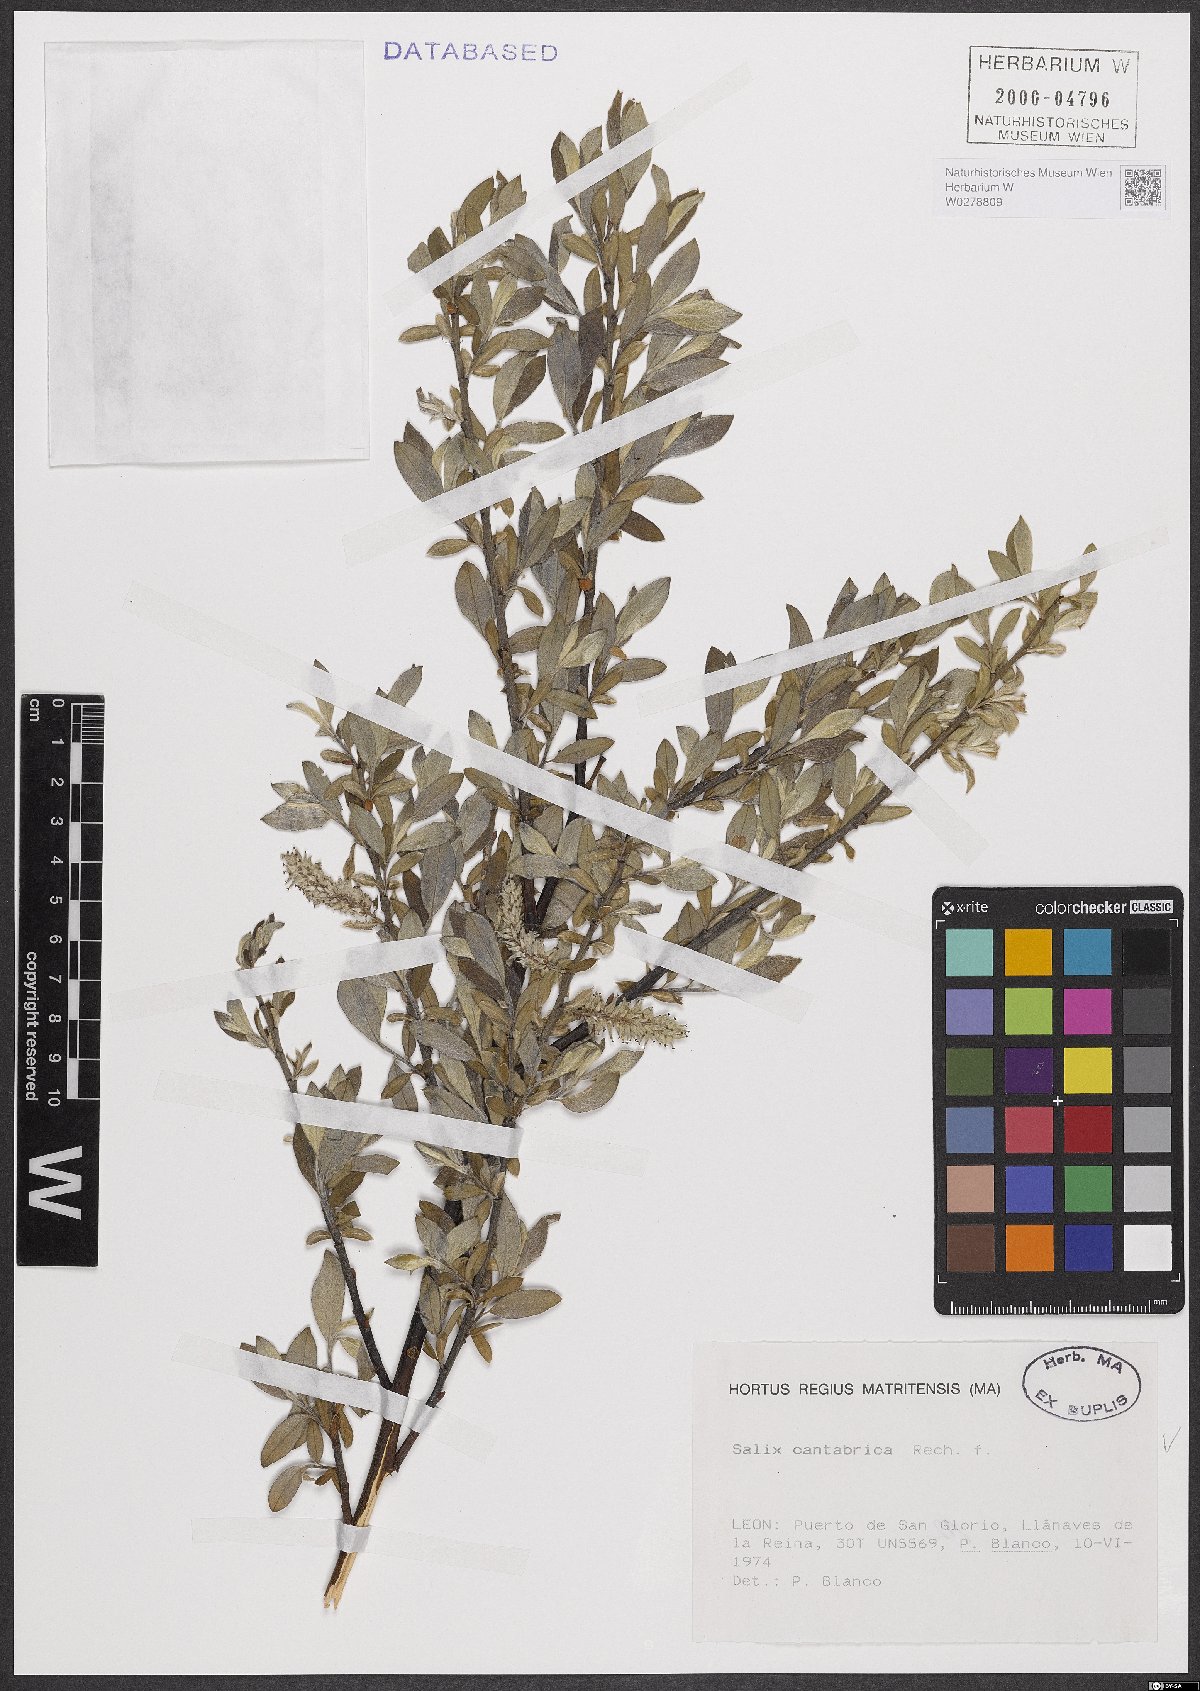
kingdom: Plantae
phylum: Tracheophyta
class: Magnoliopsida
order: Malpighiales
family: Salicaceae
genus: Salix
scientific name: Salix cantabrica
